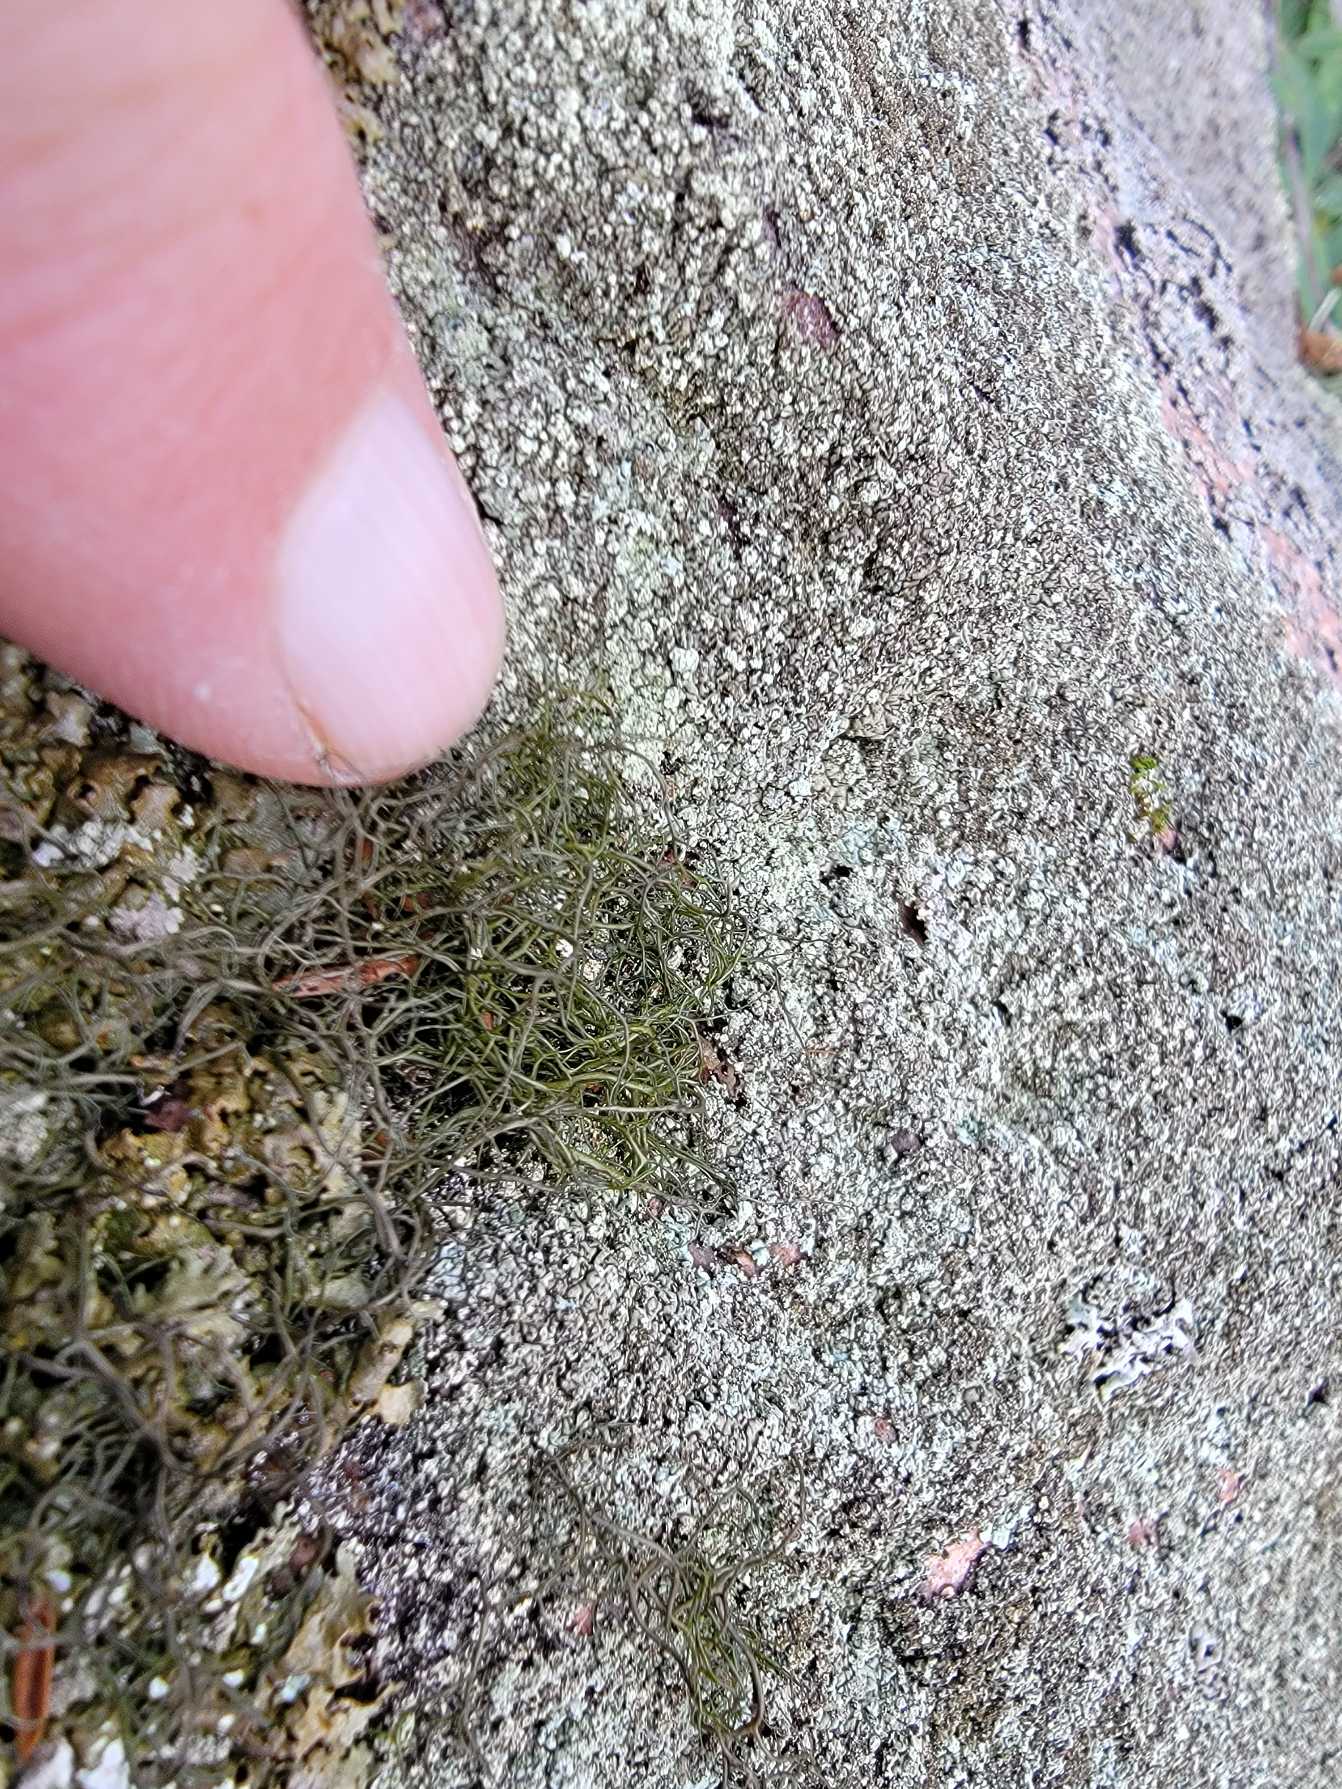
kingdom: Fungi
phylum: Ascomycota
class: Lecanoromycetes
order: Lecanorales
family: Parmeliaceae
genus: Bryoria
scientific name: Bryoria fuscescens
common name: Almindelig mankelav
